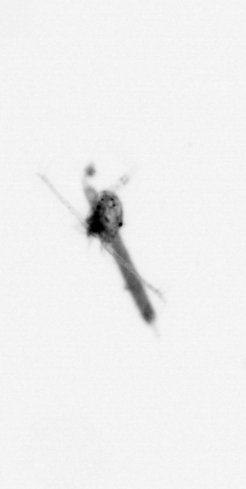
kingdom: Animalia
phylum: Arthropoda
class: Copepoda
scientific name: Copepoda
